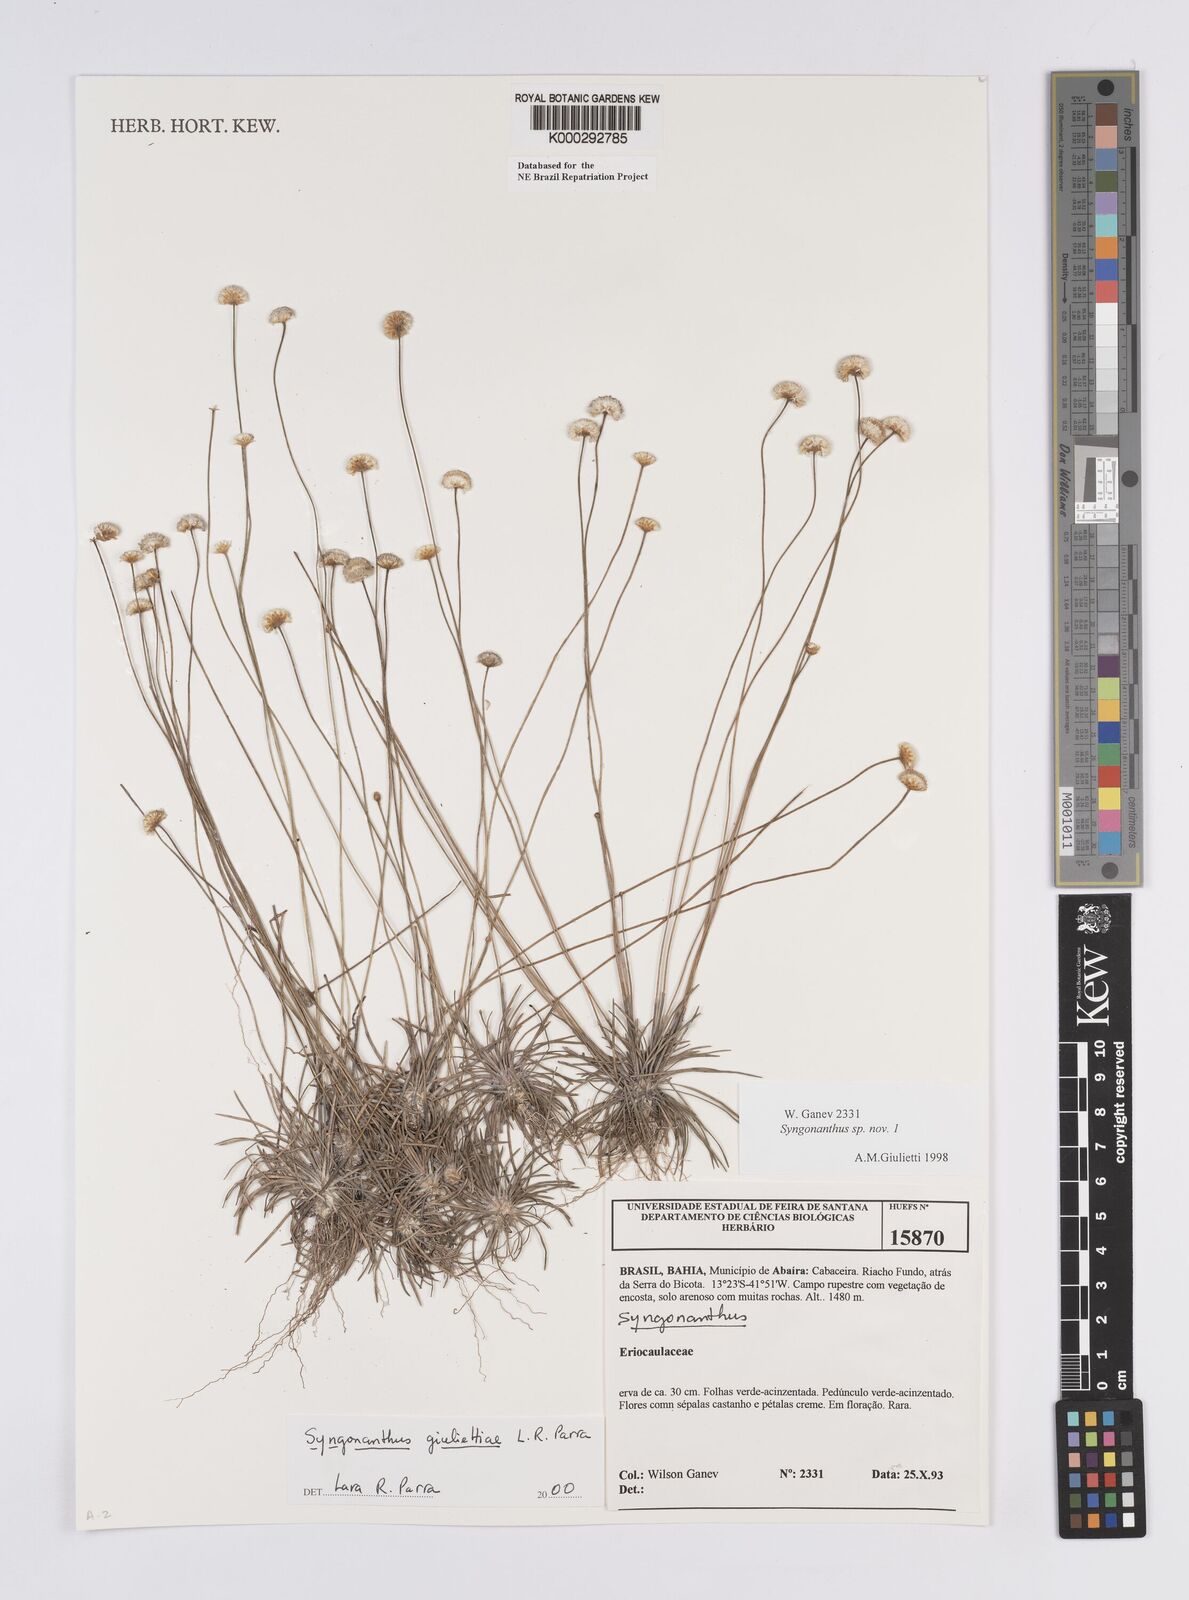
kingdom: Plantae
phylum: Tracheophyta
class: Liliopsida
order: Poales
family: Eriocaulaceae
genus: Syngonanthus
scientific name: Syngonanthus
